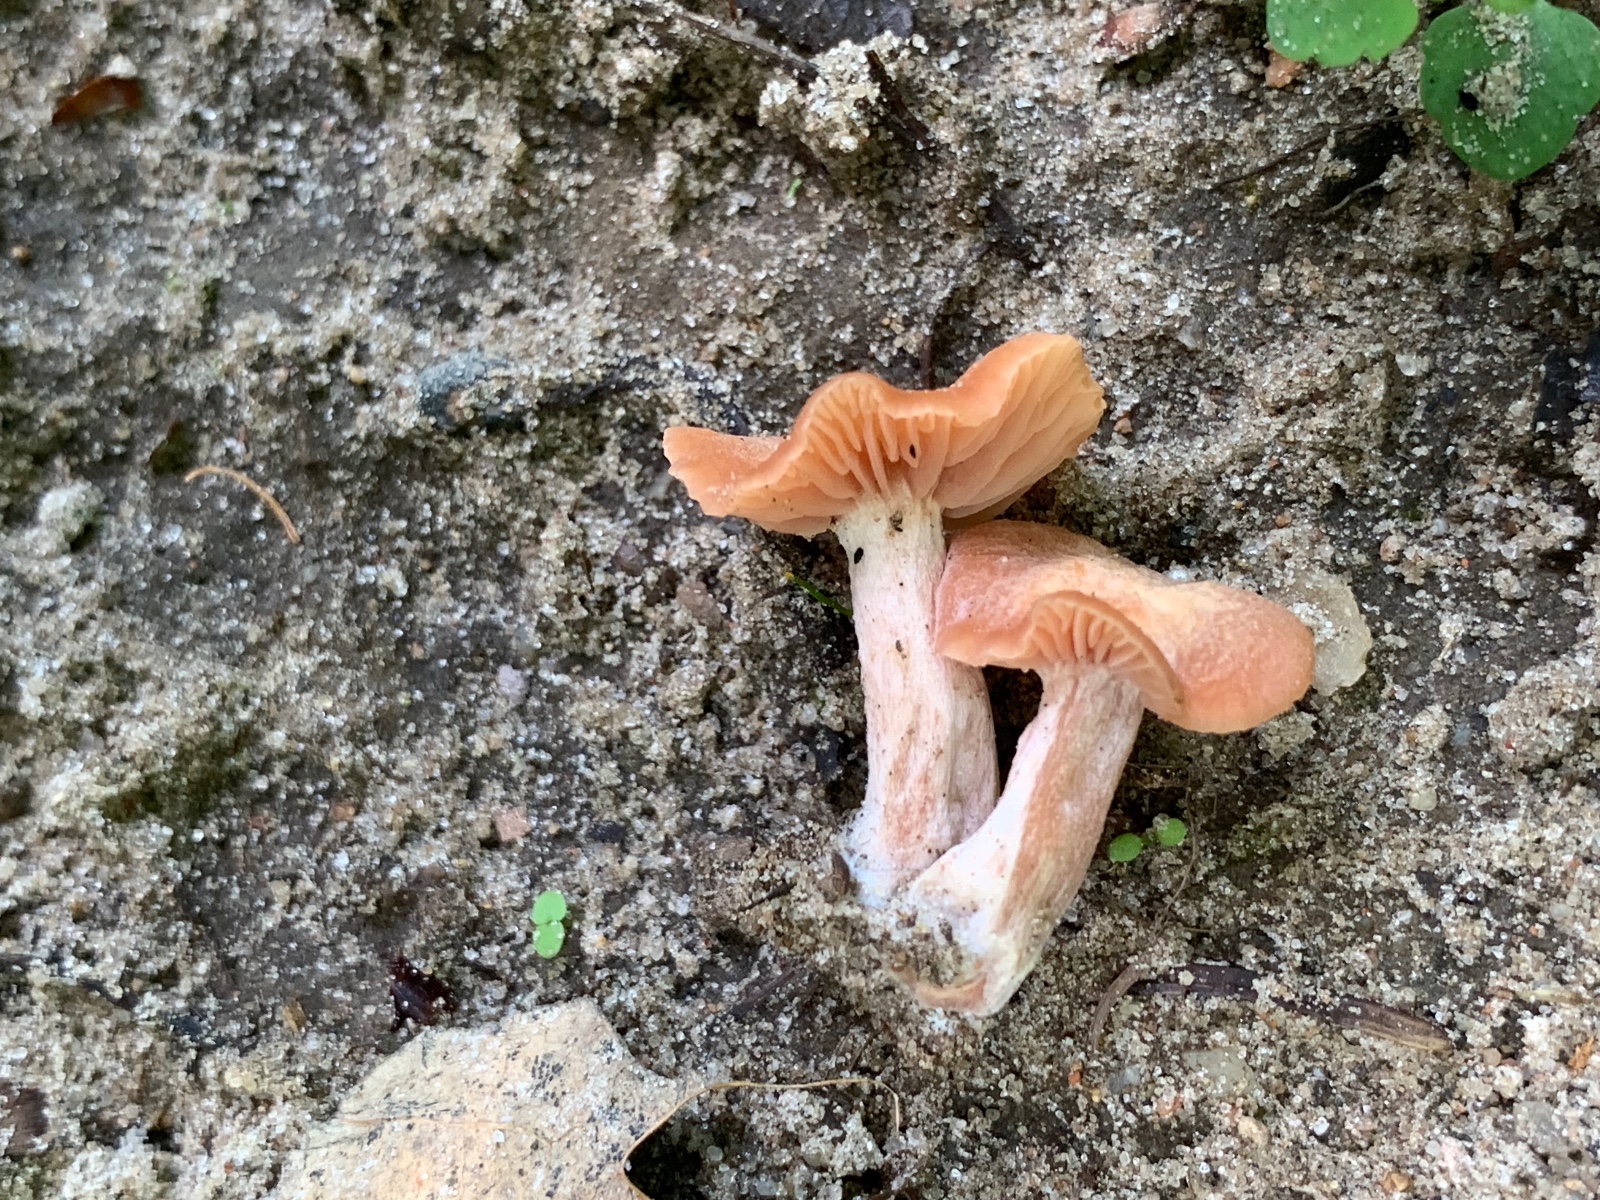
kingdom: Fungi
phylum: Basidiomycota
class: Agaricomycetes
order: Agaricales
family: Hydnangiaceae
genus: Laccaria
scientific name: Laccaria laccata
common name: rød ametysthat
